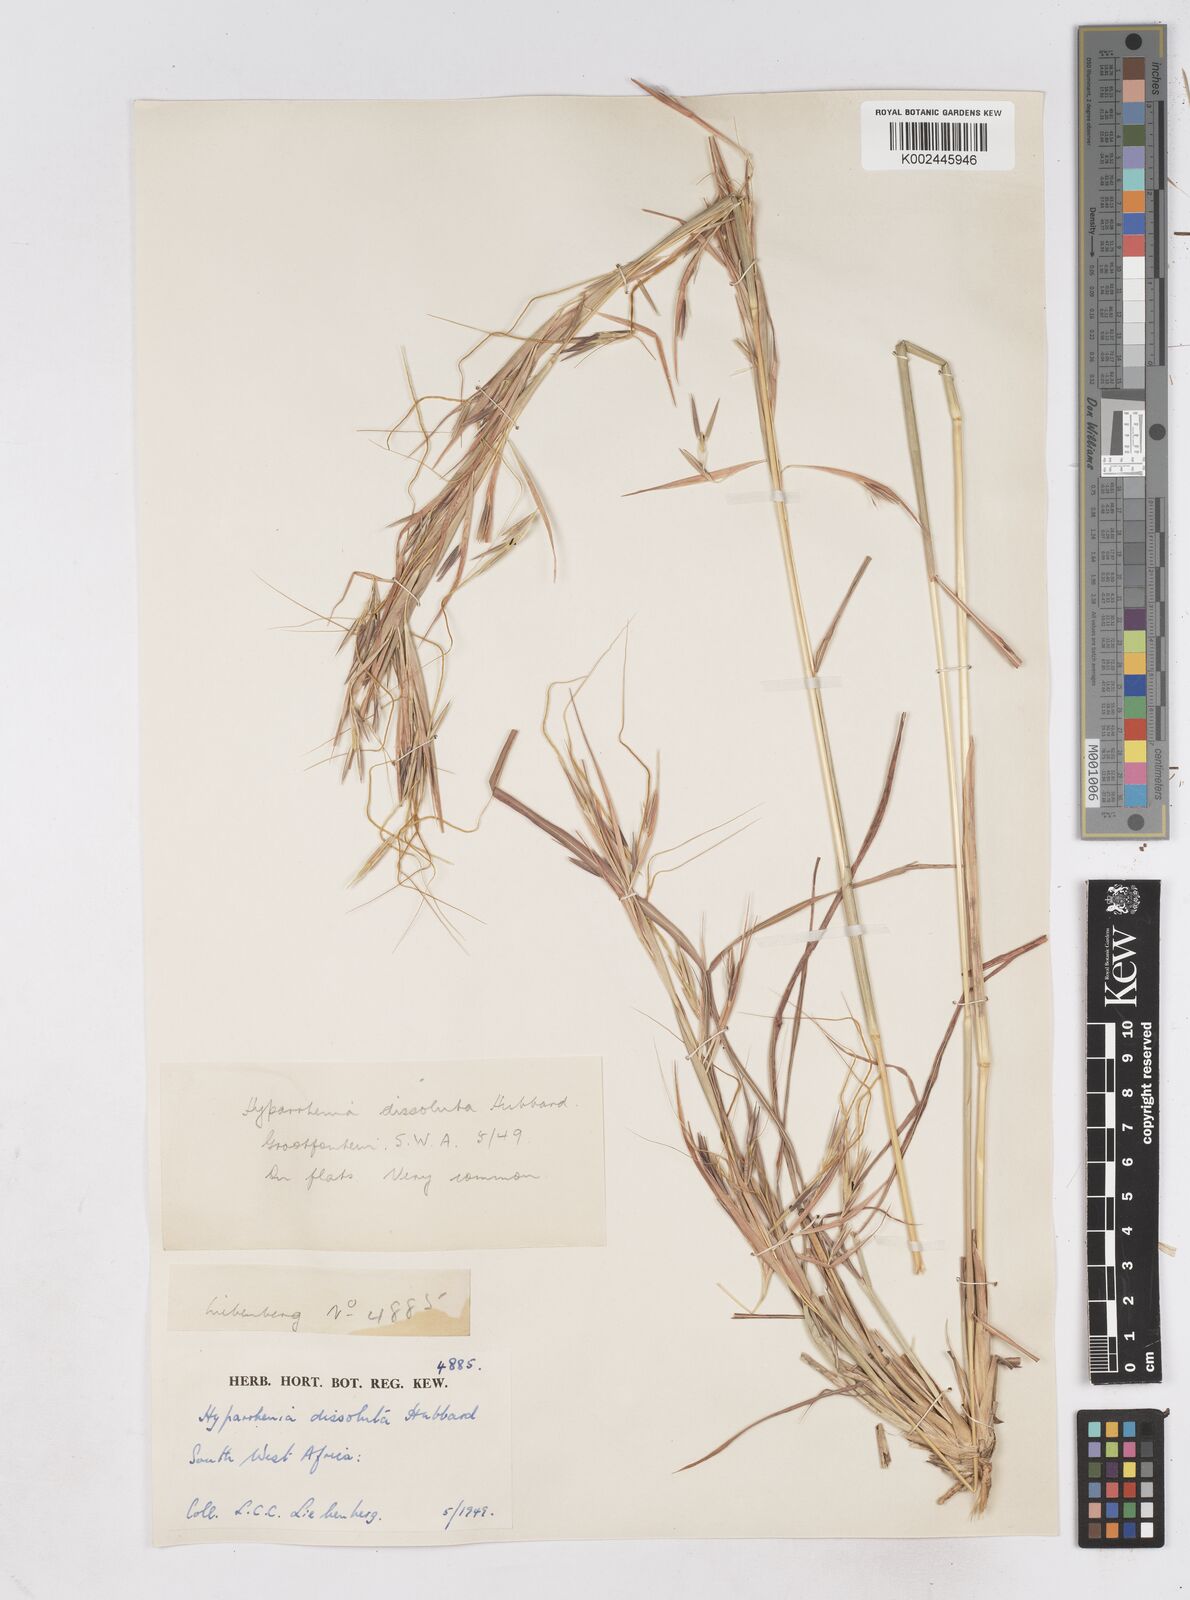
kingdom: Plantae
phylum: Tracheophyta
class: Liliopsida
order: Poales
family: Poaceae
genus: Hyperthelia
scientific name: Hyperthelia dissoluta
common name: Yellow thatching grass
